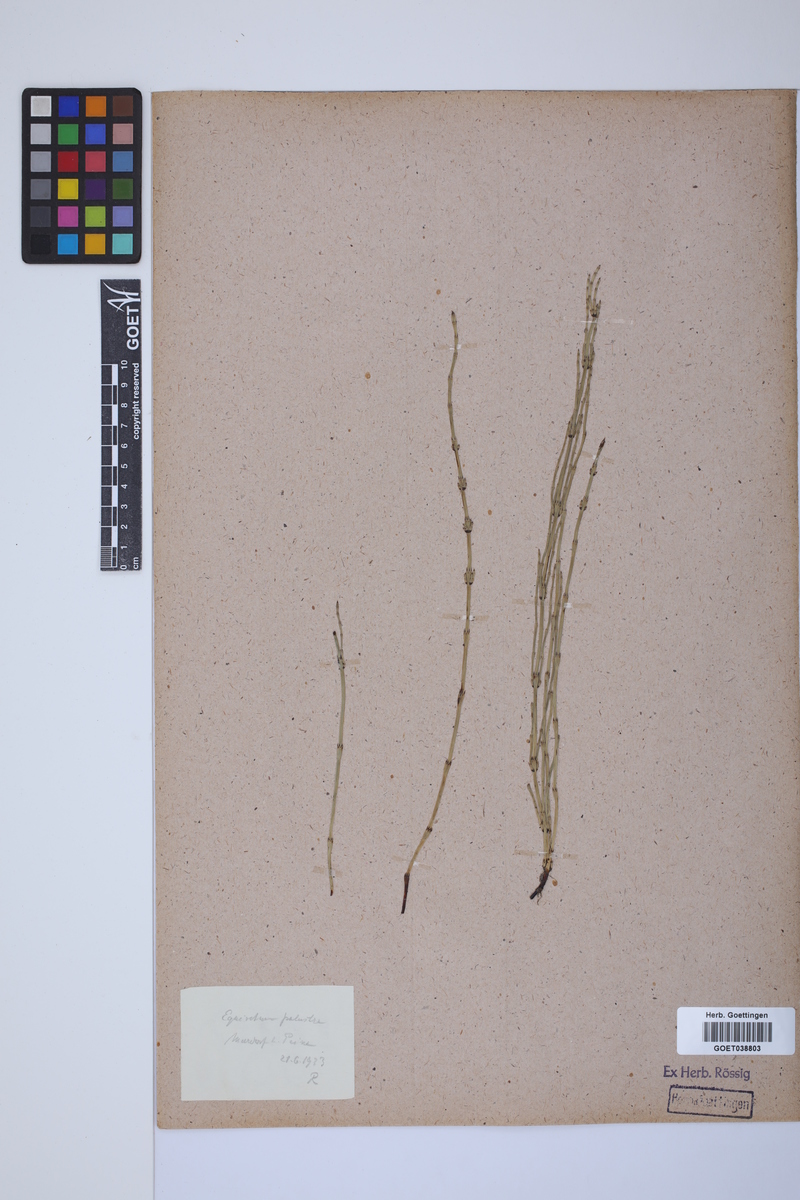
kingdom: Plantae
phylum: Tracheophyta
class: Polypodiopsida
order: Equisetales
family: Equisetaceae
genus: Equisetum
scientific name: Equisetum palustre
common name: Marsh horsetail
